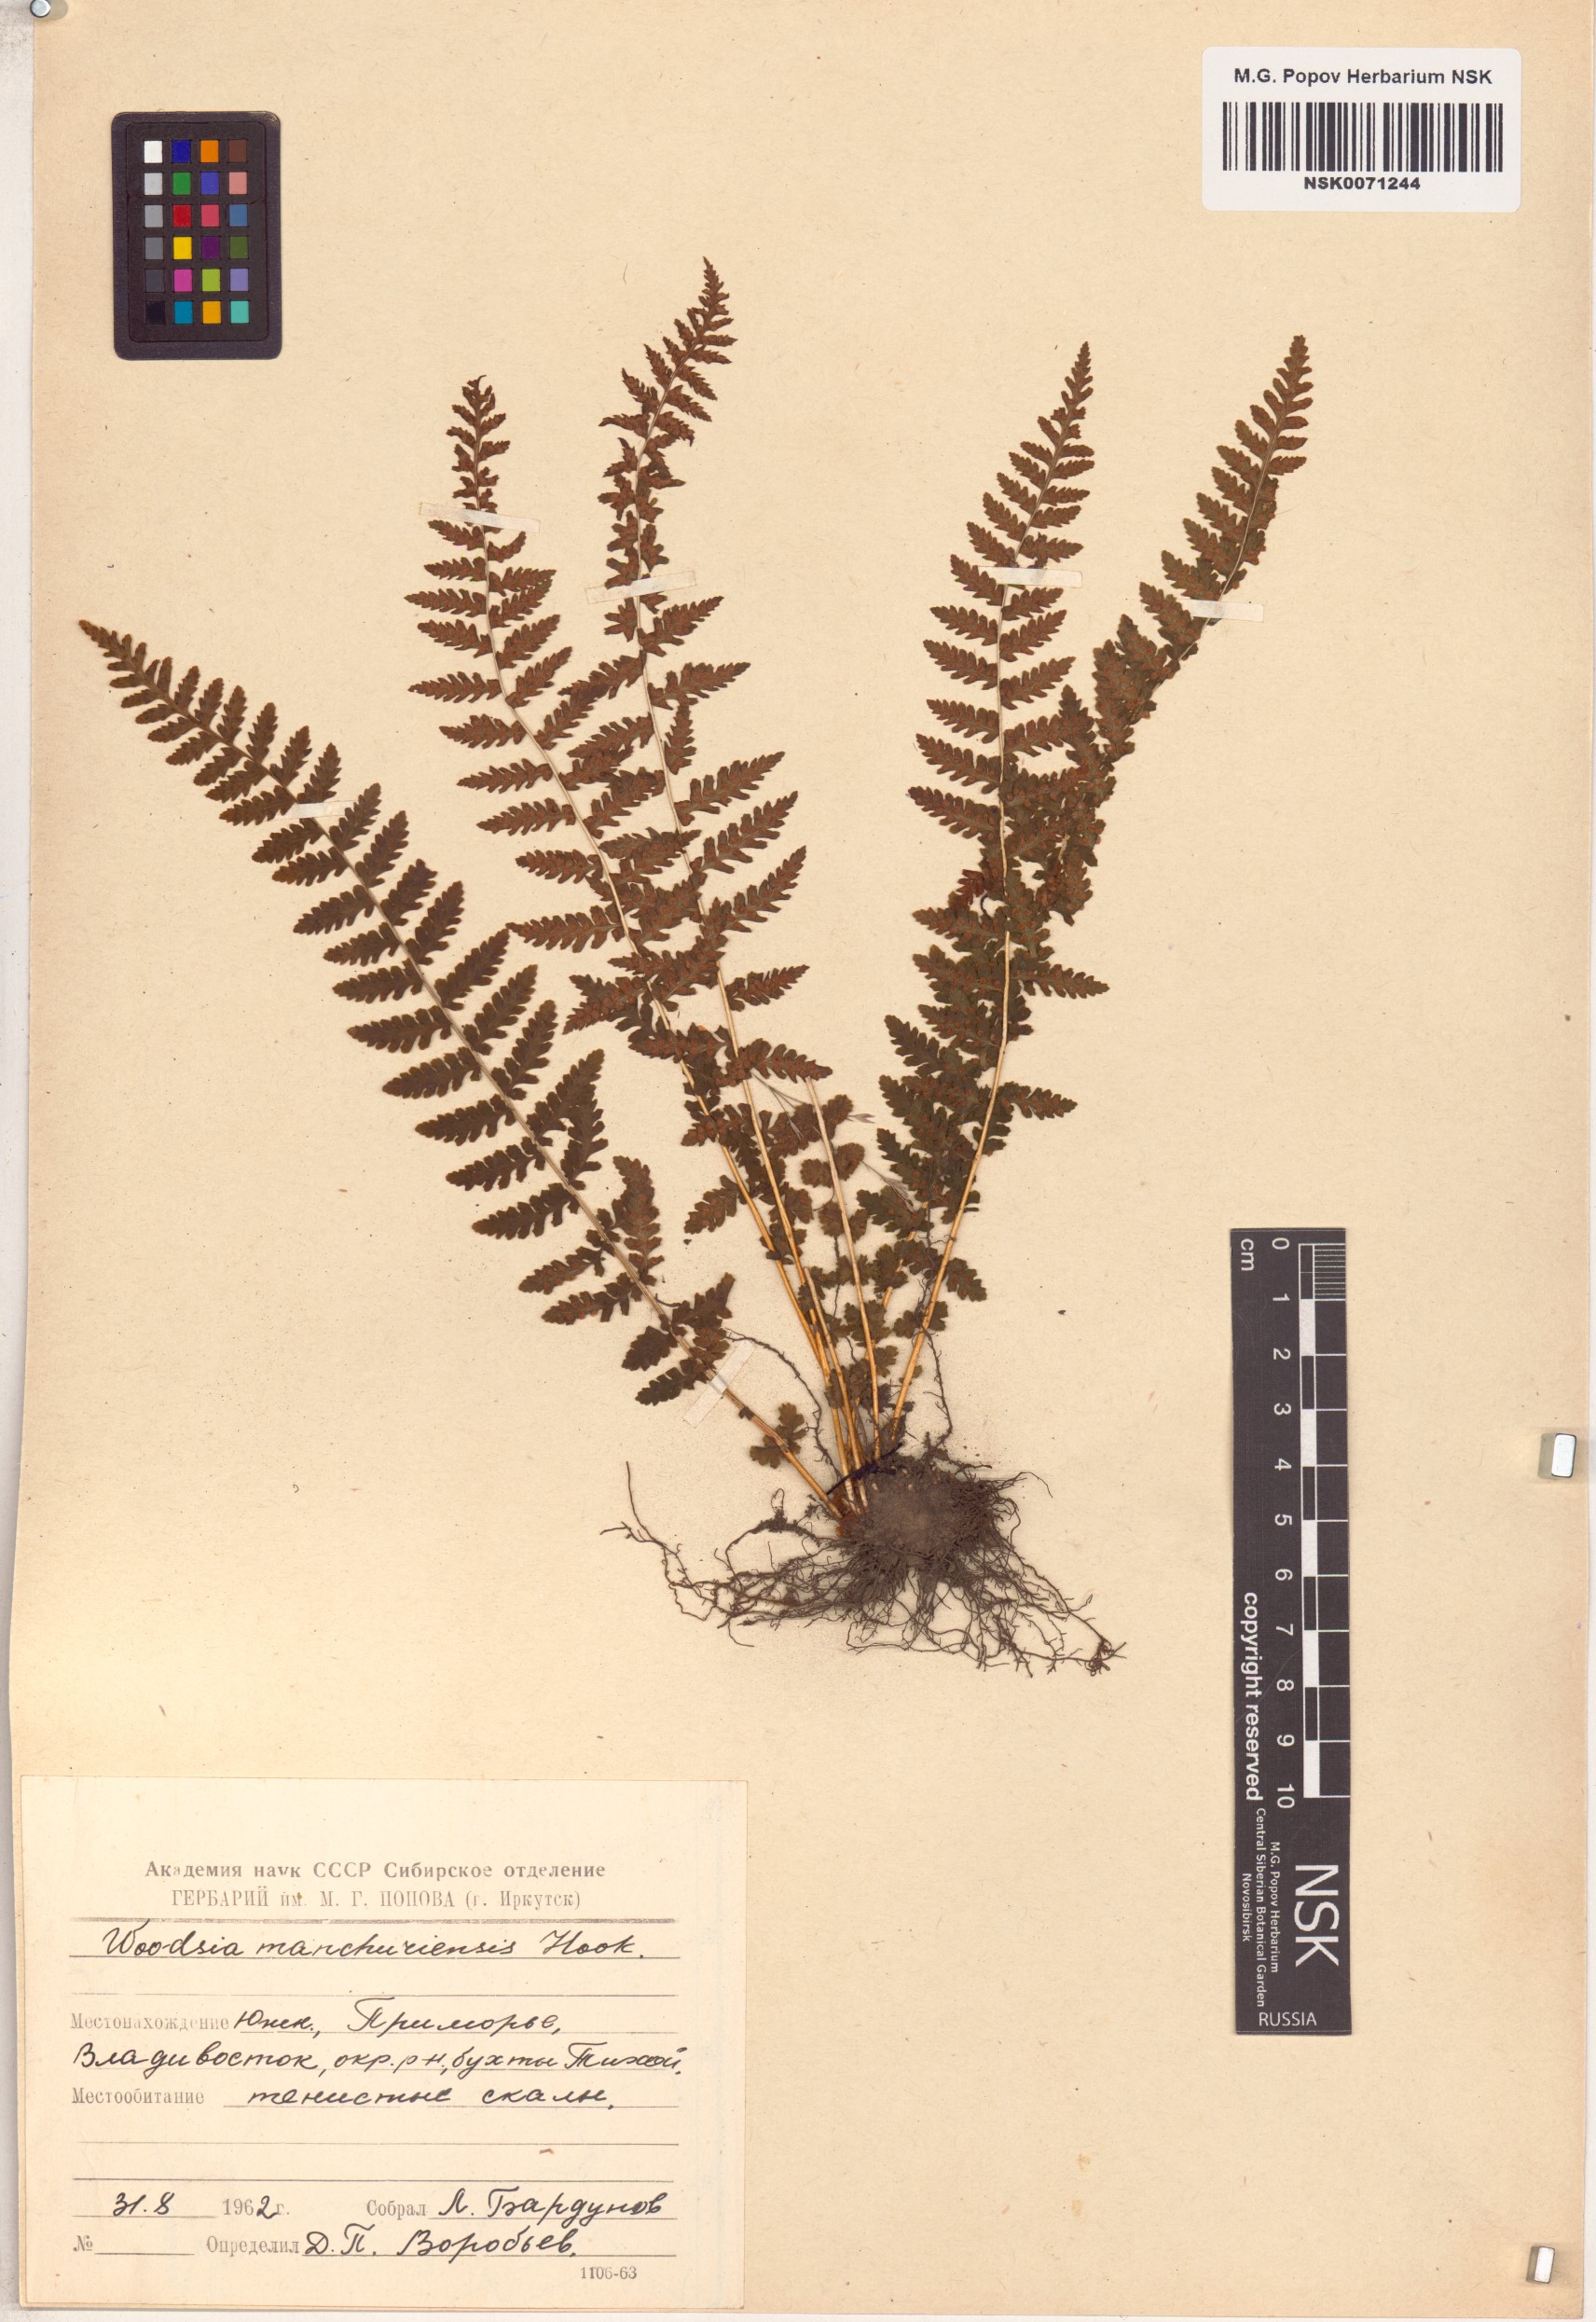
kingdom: Plantae
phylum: Tracheophyta
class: Polypodiopsida
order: Polypodiales
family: Woodsiaceae
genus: Physematium
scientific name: Physematium manchuriense
